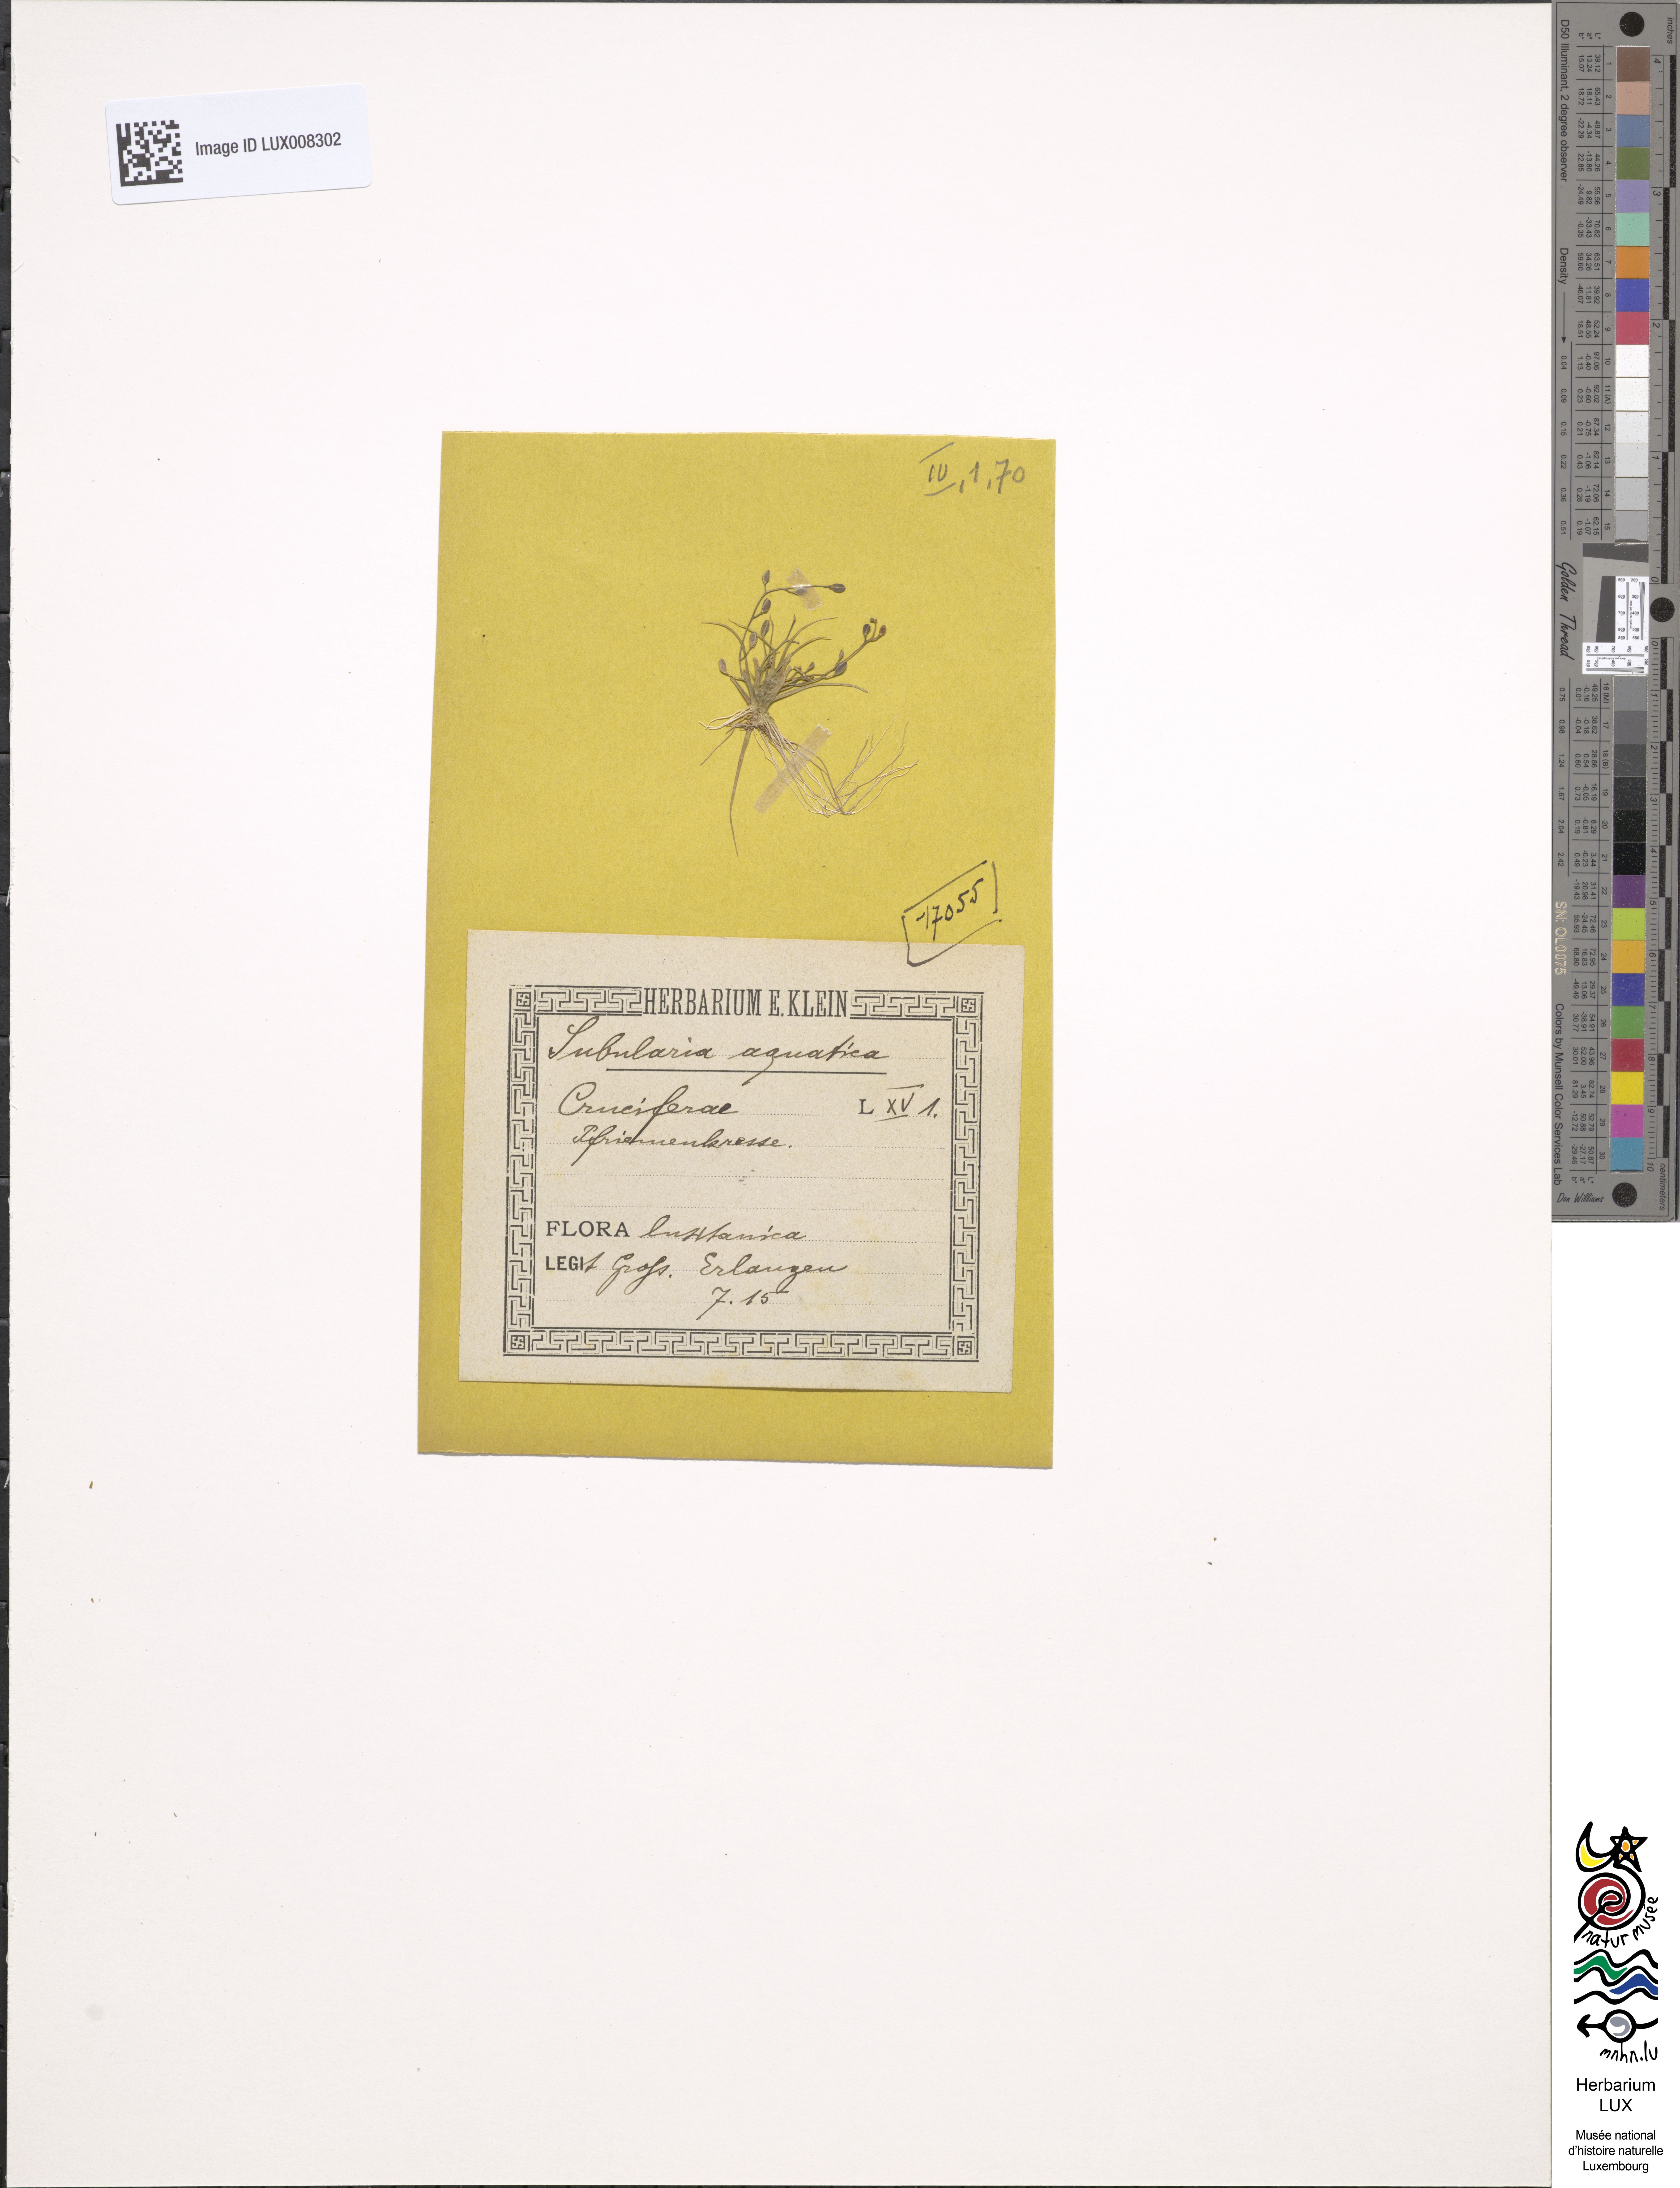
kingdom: Plantae
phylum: Tracheophyta
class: Magnoliopsida
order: Brassicales
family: Brassicaceae
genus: Subularia
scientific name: Subularia aquatica
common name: Awlwort
